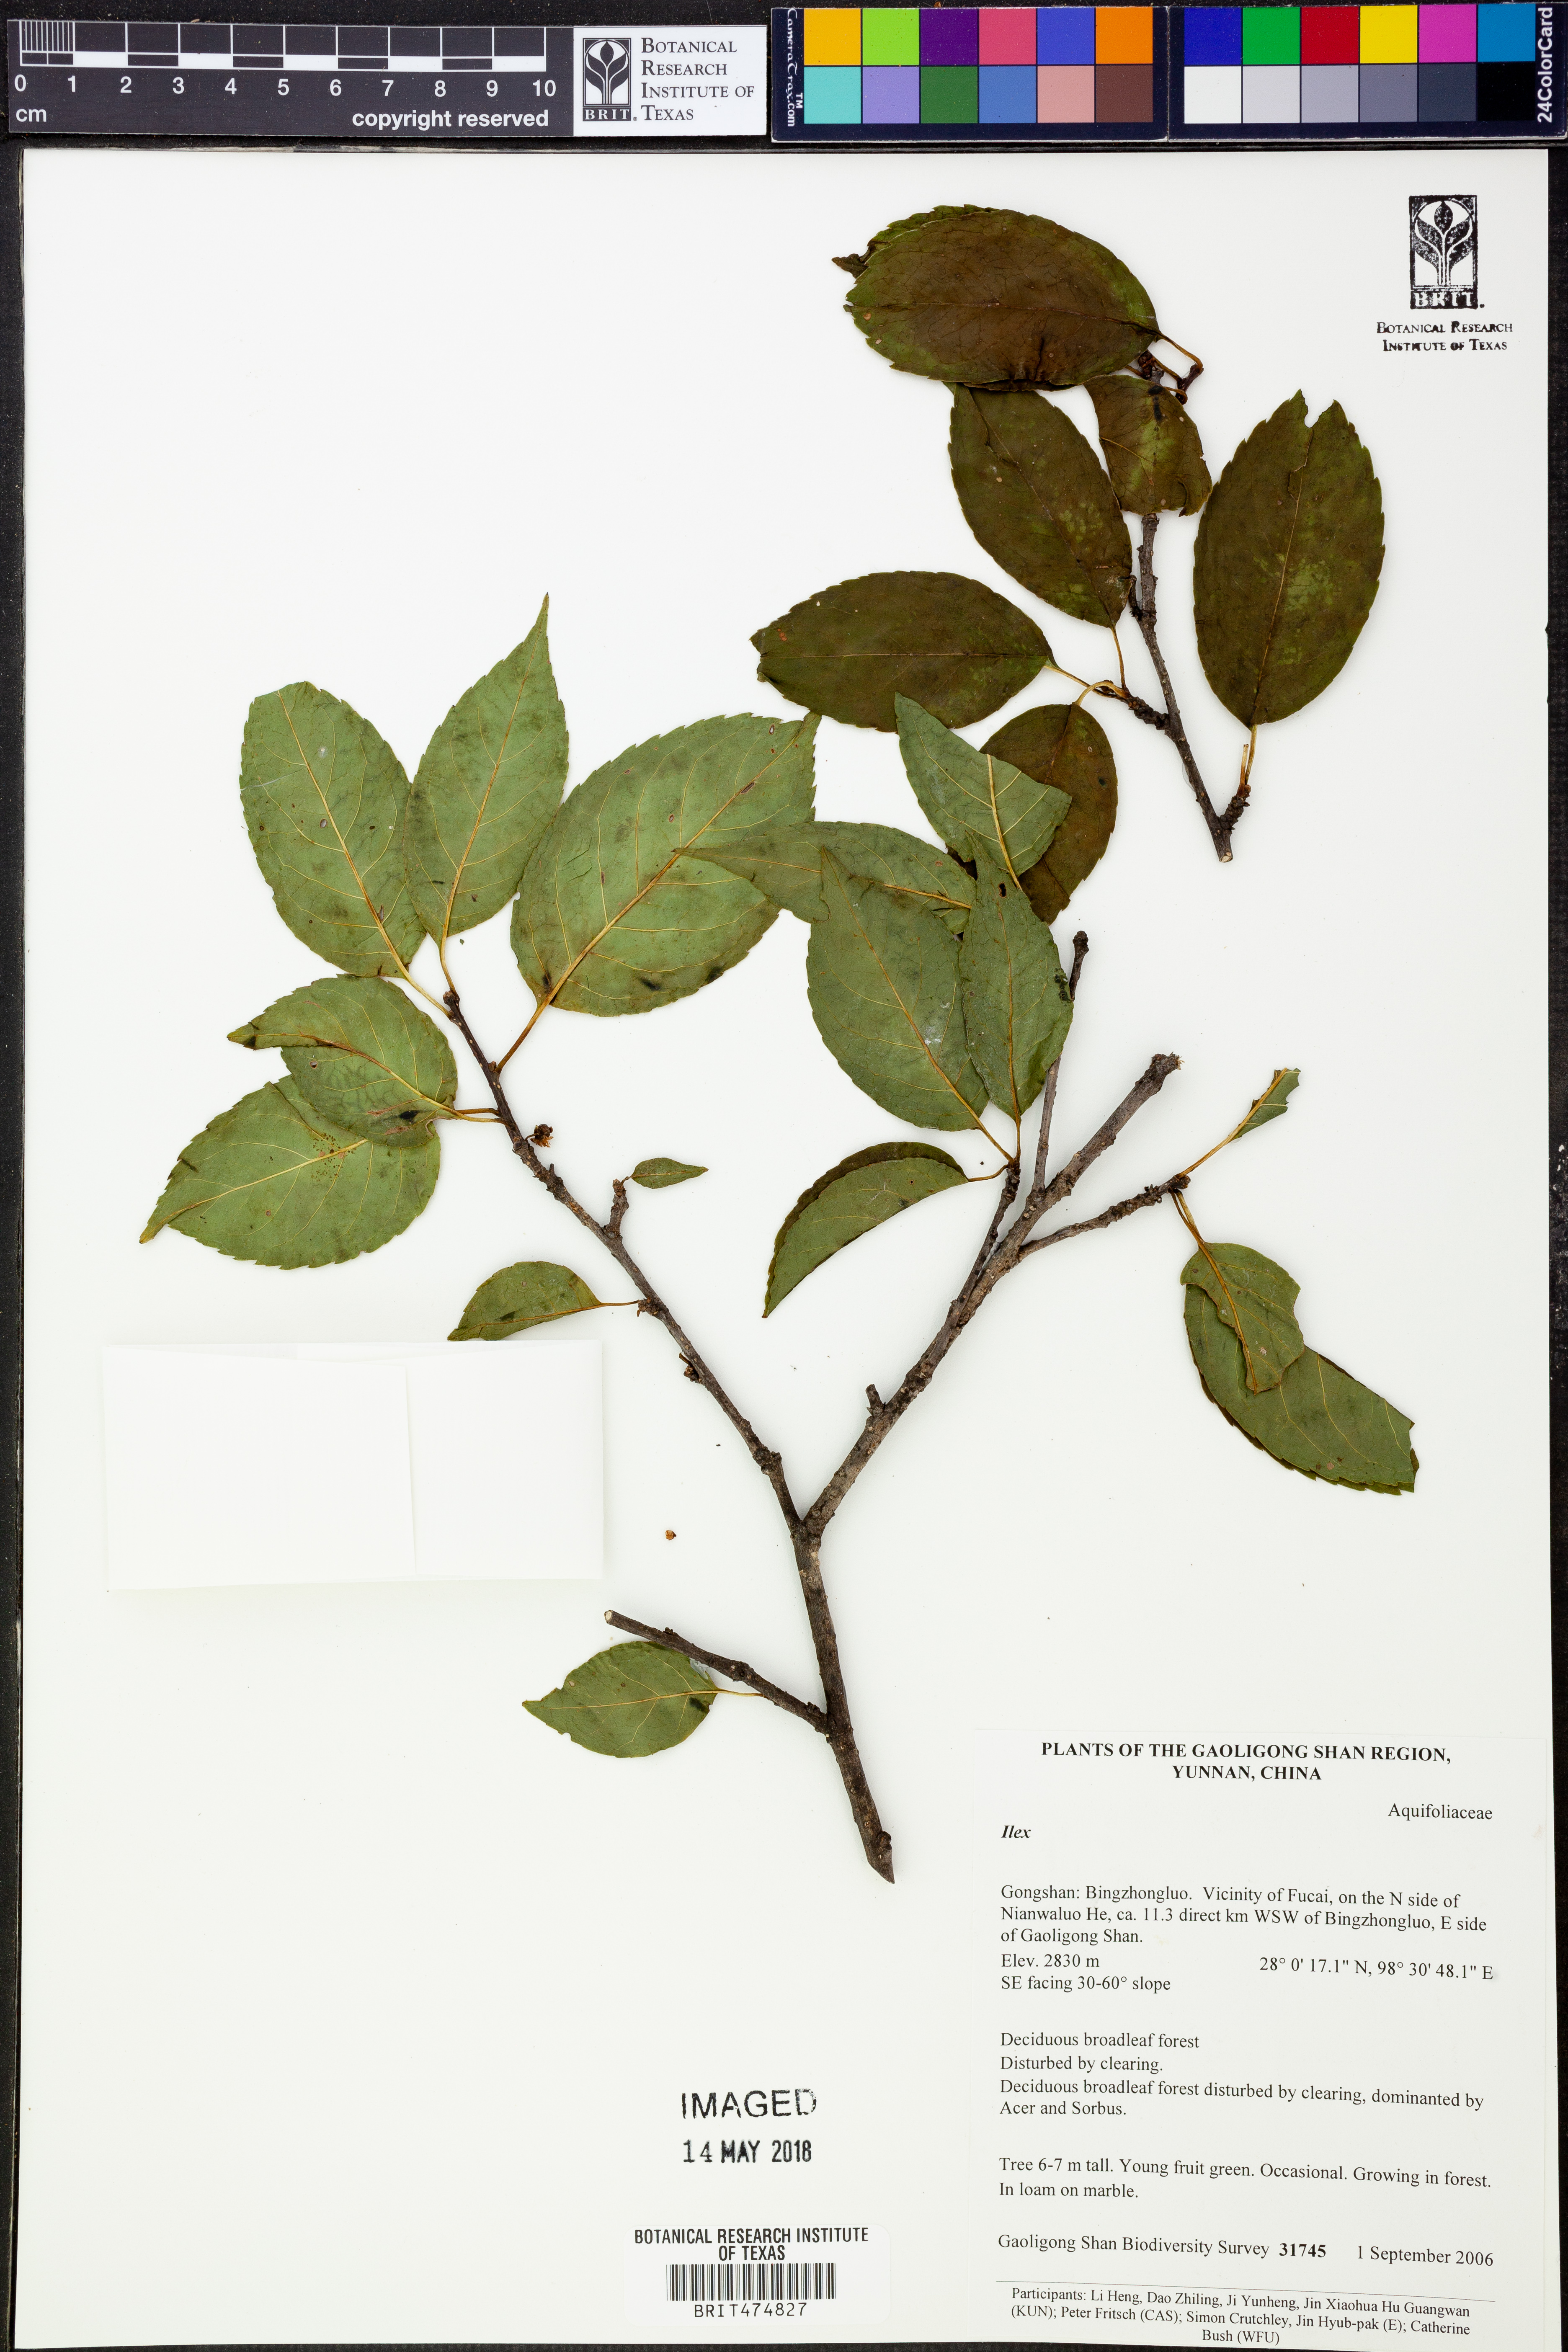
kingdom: Plantae
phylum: Tracheophyta
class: Magnoliopsida
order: Aquifoliales
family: Aquifoliaceae
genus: Ilex
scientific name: Ilex
